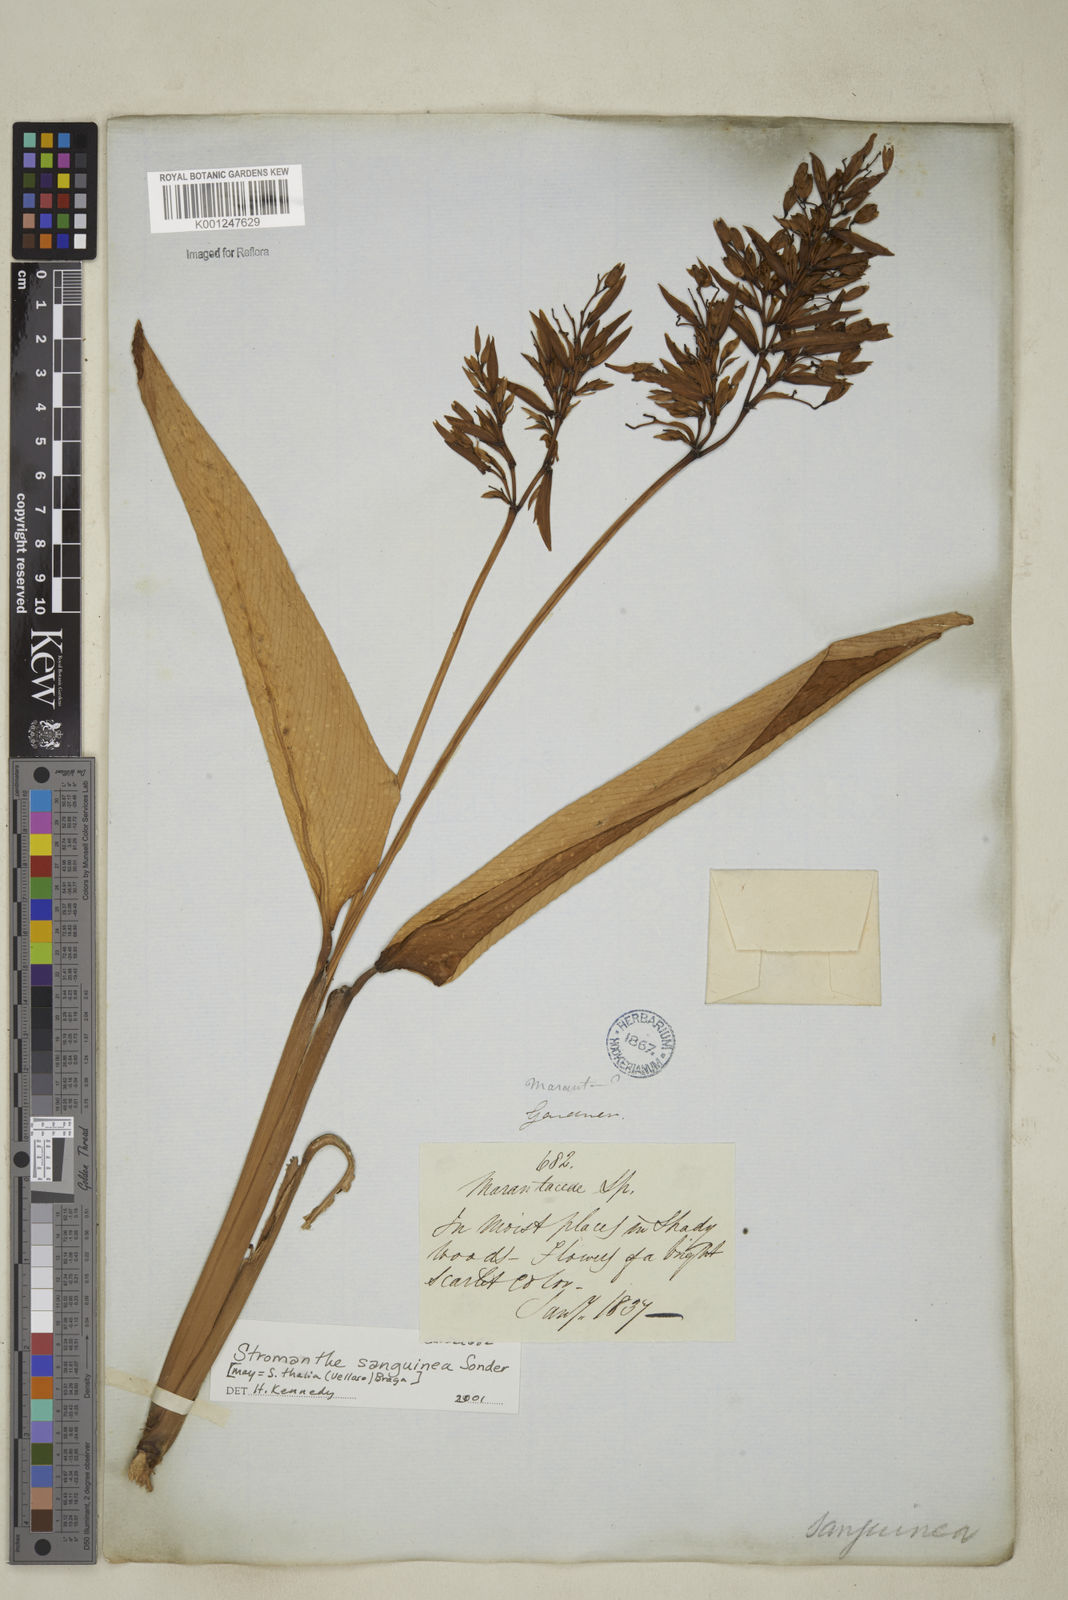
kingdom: Plantae
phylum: Tracheophyta
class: Liliopsida
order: Zingiberales
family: Marantaceae
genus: Stromanthe
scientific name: Stromanthe thalia
